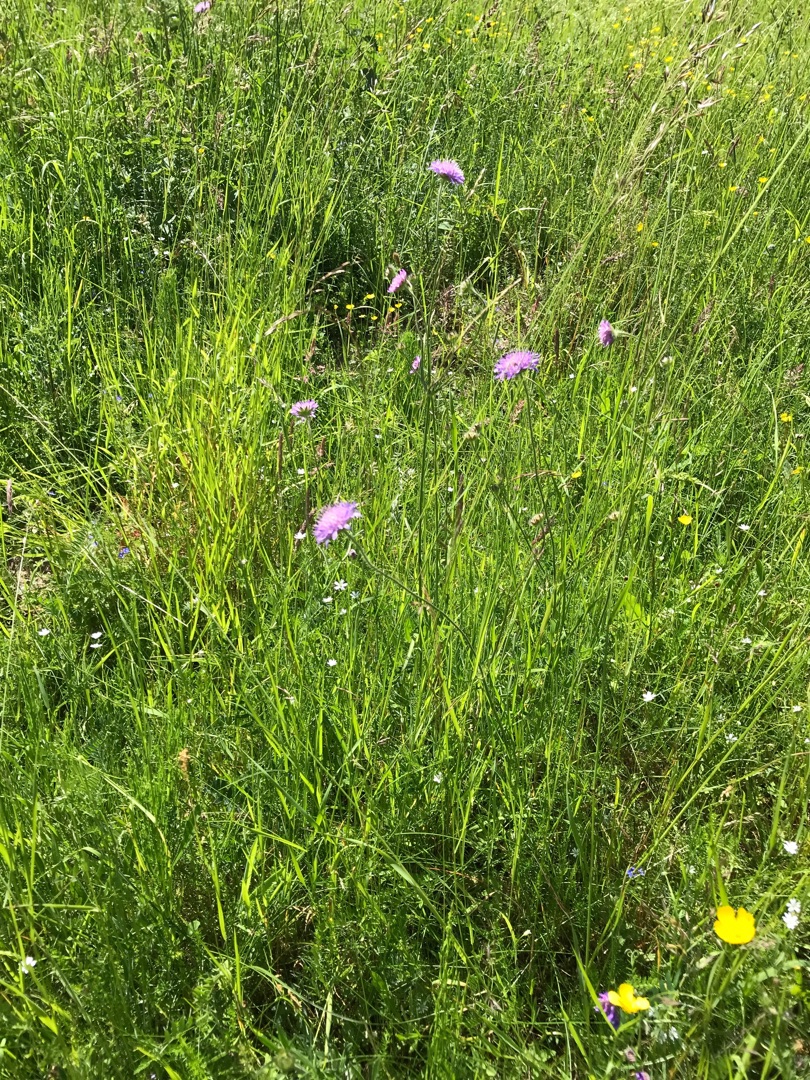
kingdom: Plantae
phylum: Tracheophyta
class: Magnoliopsida
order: Dipsacales
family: Caprifoliaceae
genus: Knautia
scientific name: Knautia arvensis
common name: Blåhat
